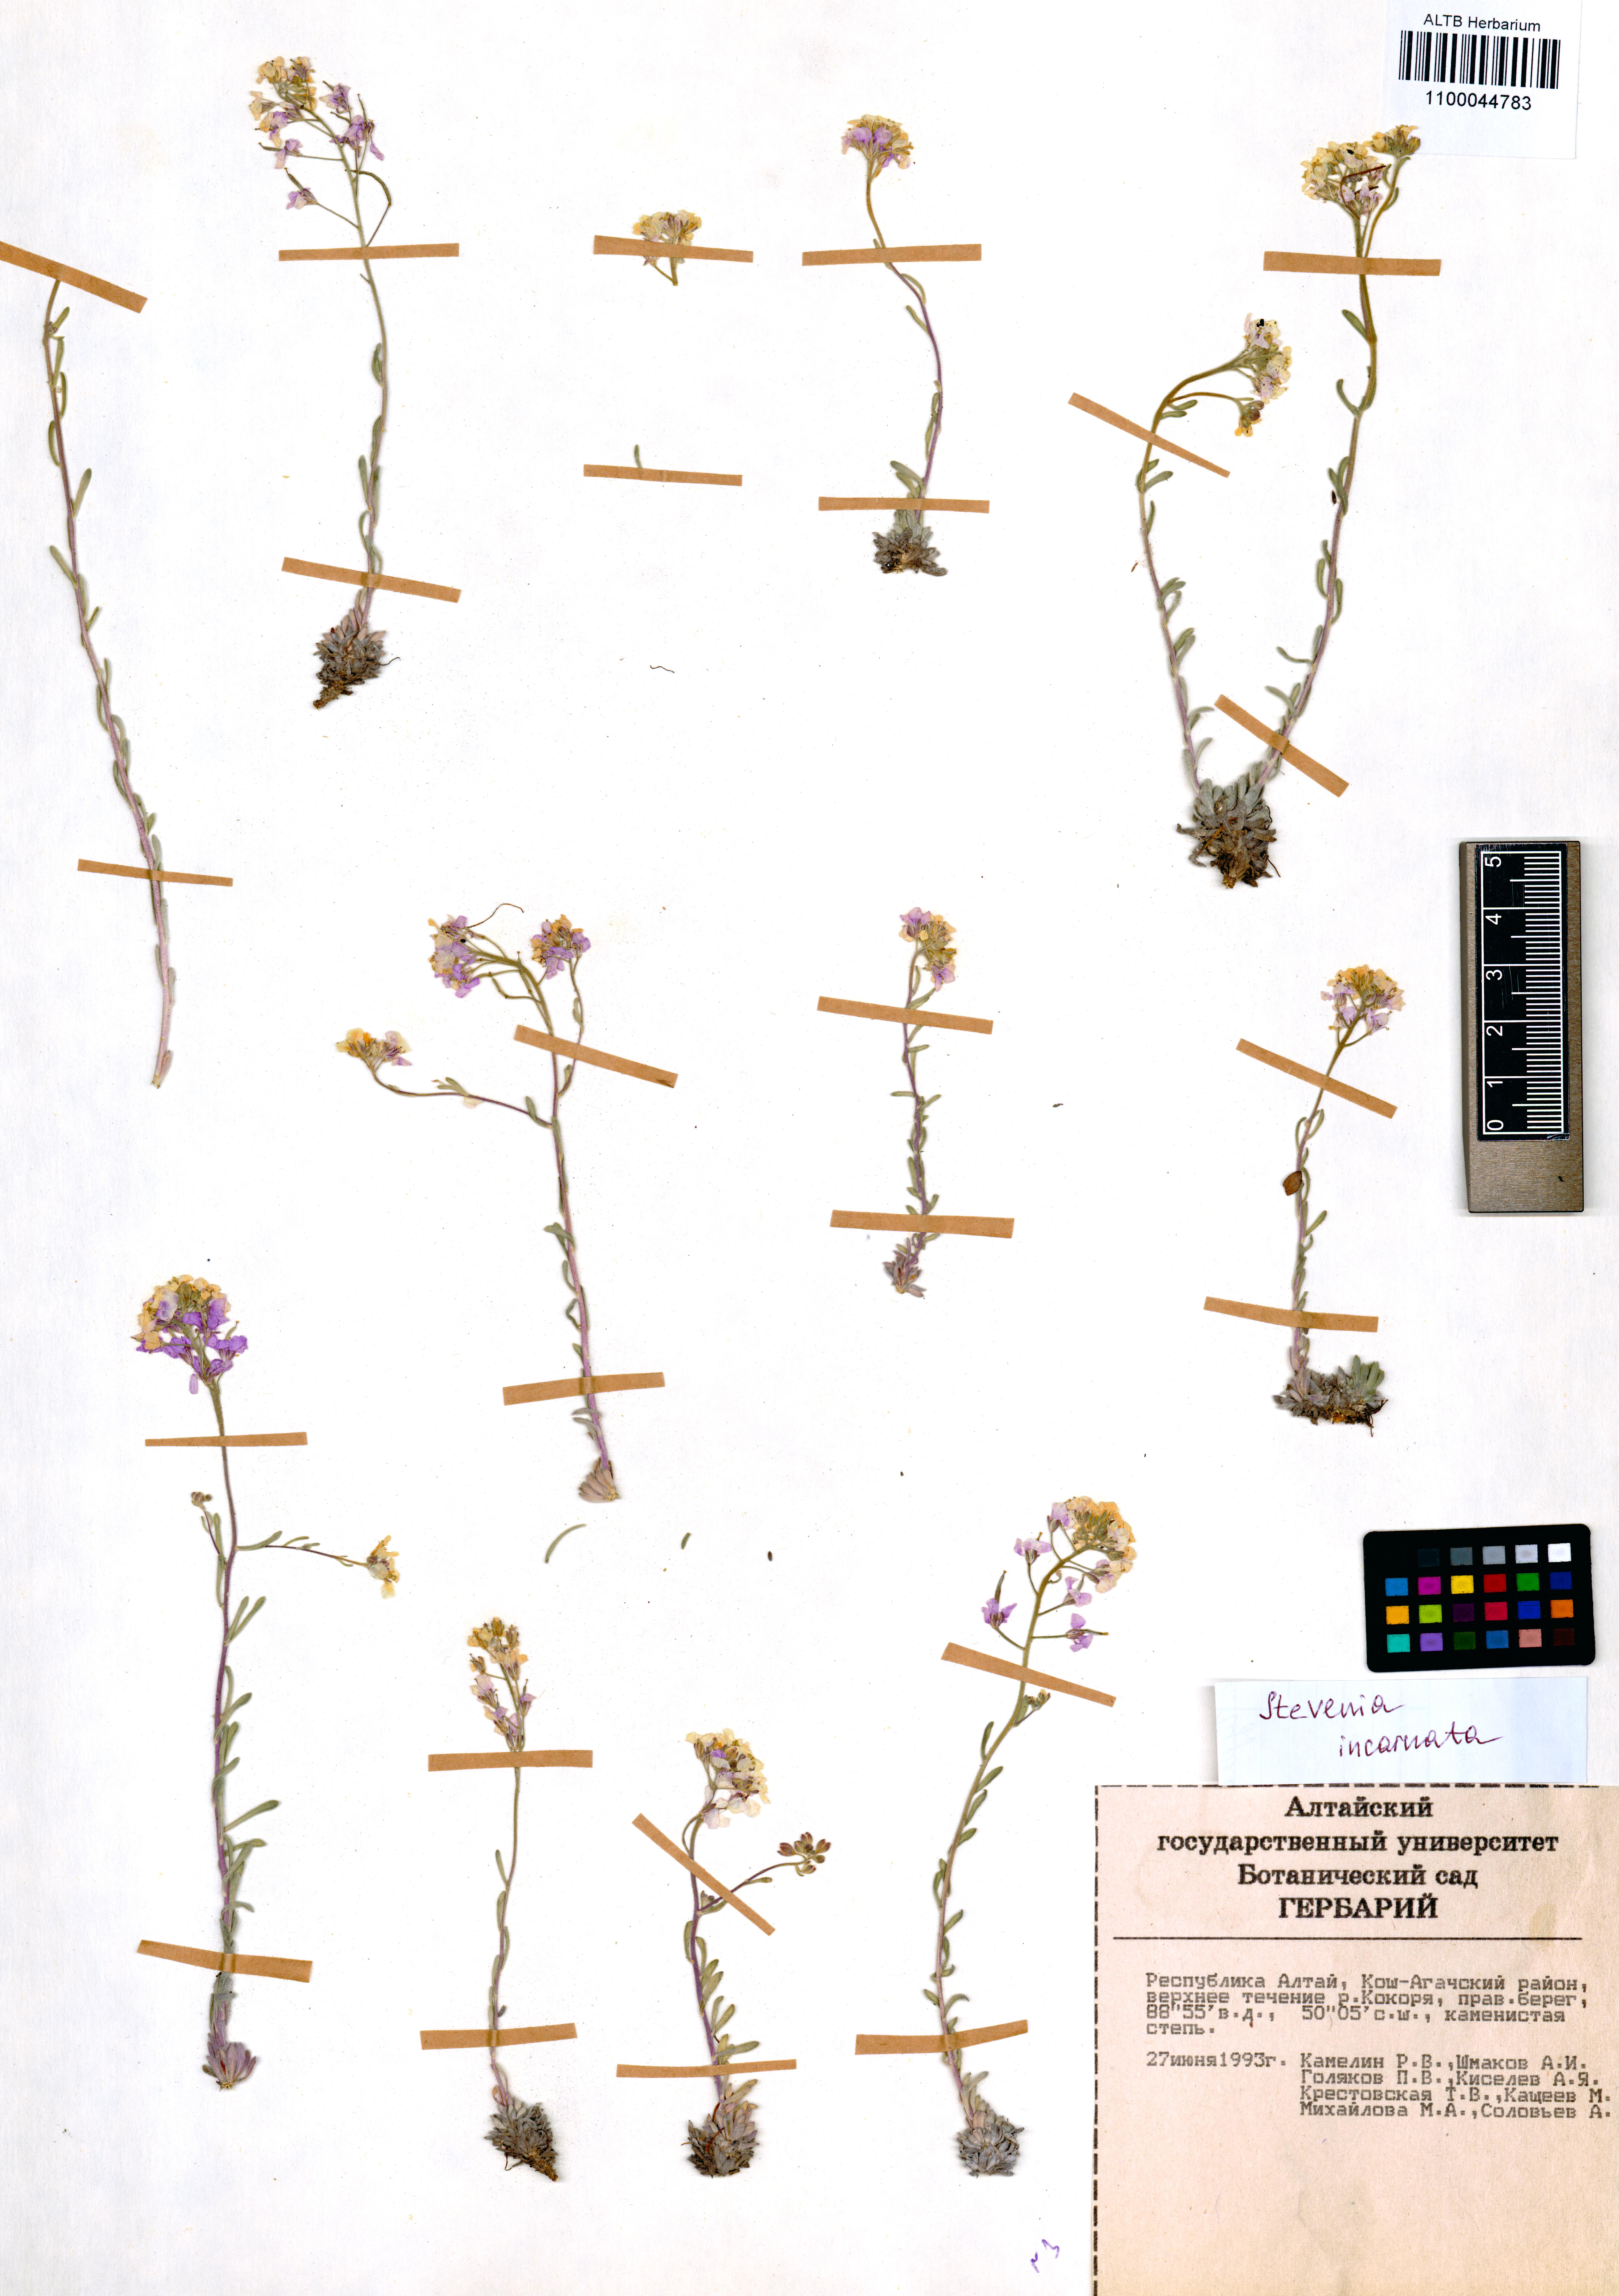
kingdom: Plantae
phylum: Tracheophyta
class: Magnoliopsida
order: Brassicales
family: Brassicaceae
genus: Stevenia
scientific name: Stevenia incarnata
